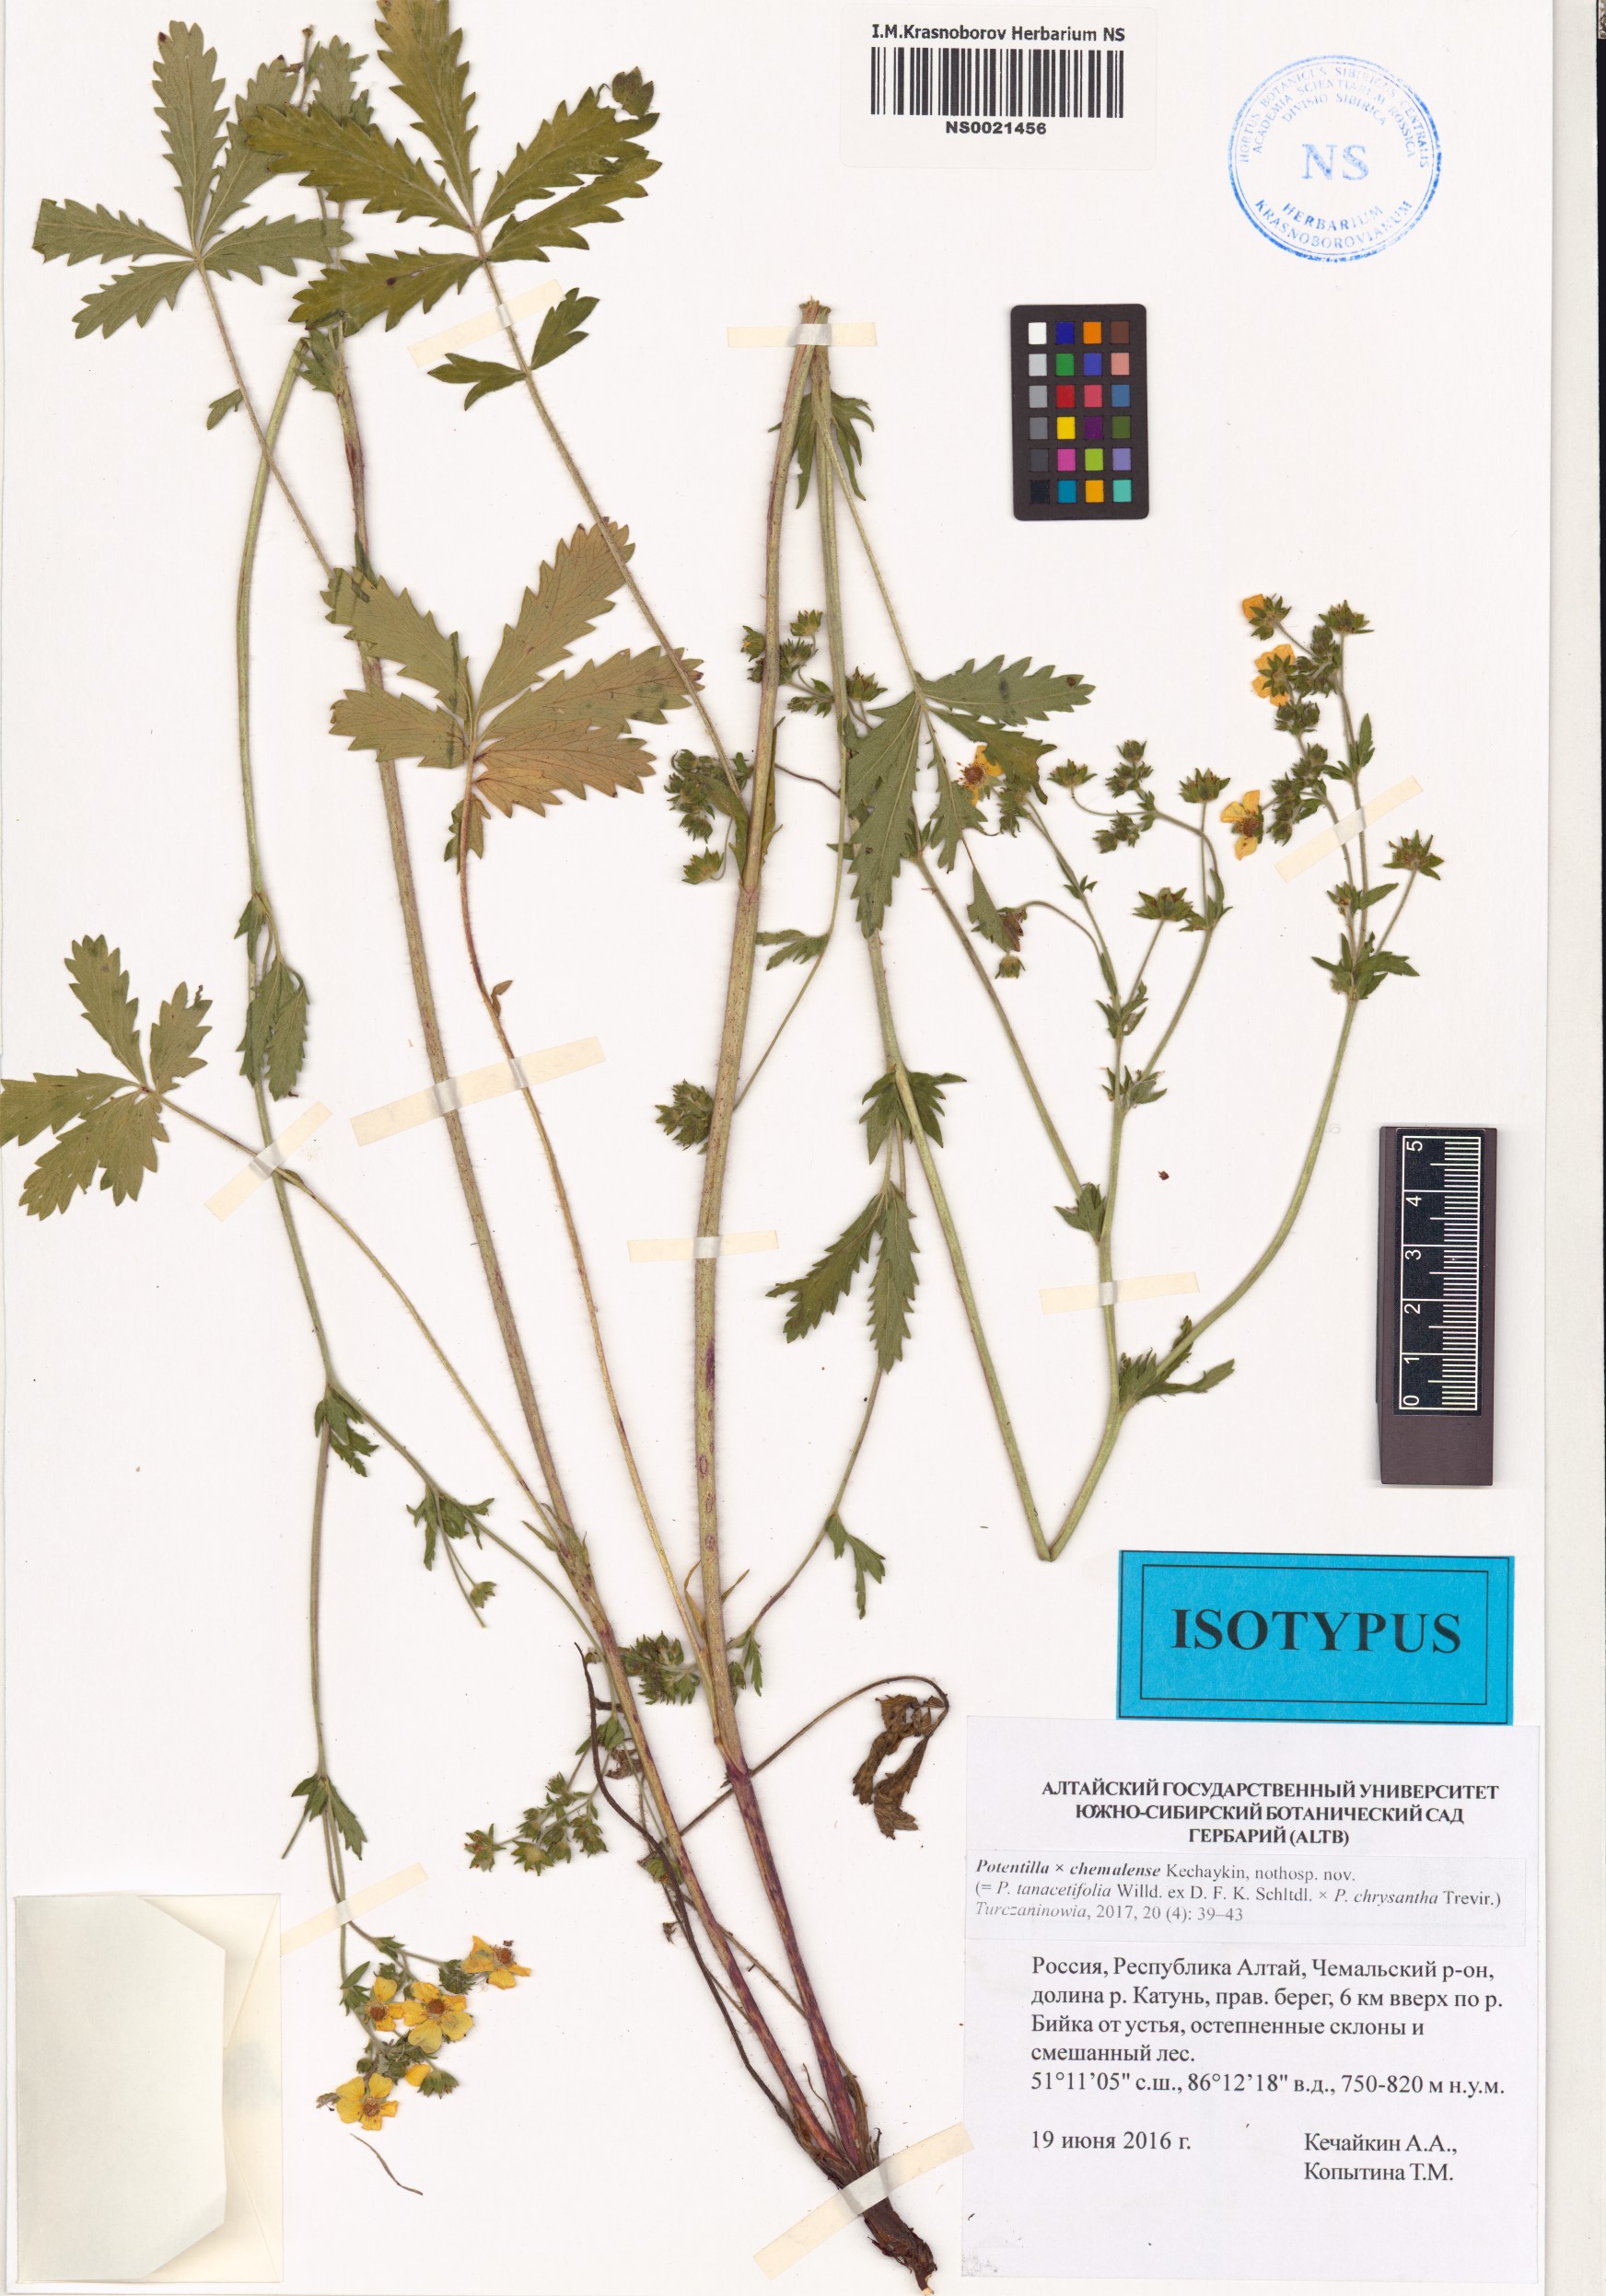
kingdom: Plantae
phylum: Tracheophyta
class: Magnoliopsida
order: Rosales
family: Rosaceae
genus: Potentilla
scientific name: Potentilla chemalensis
